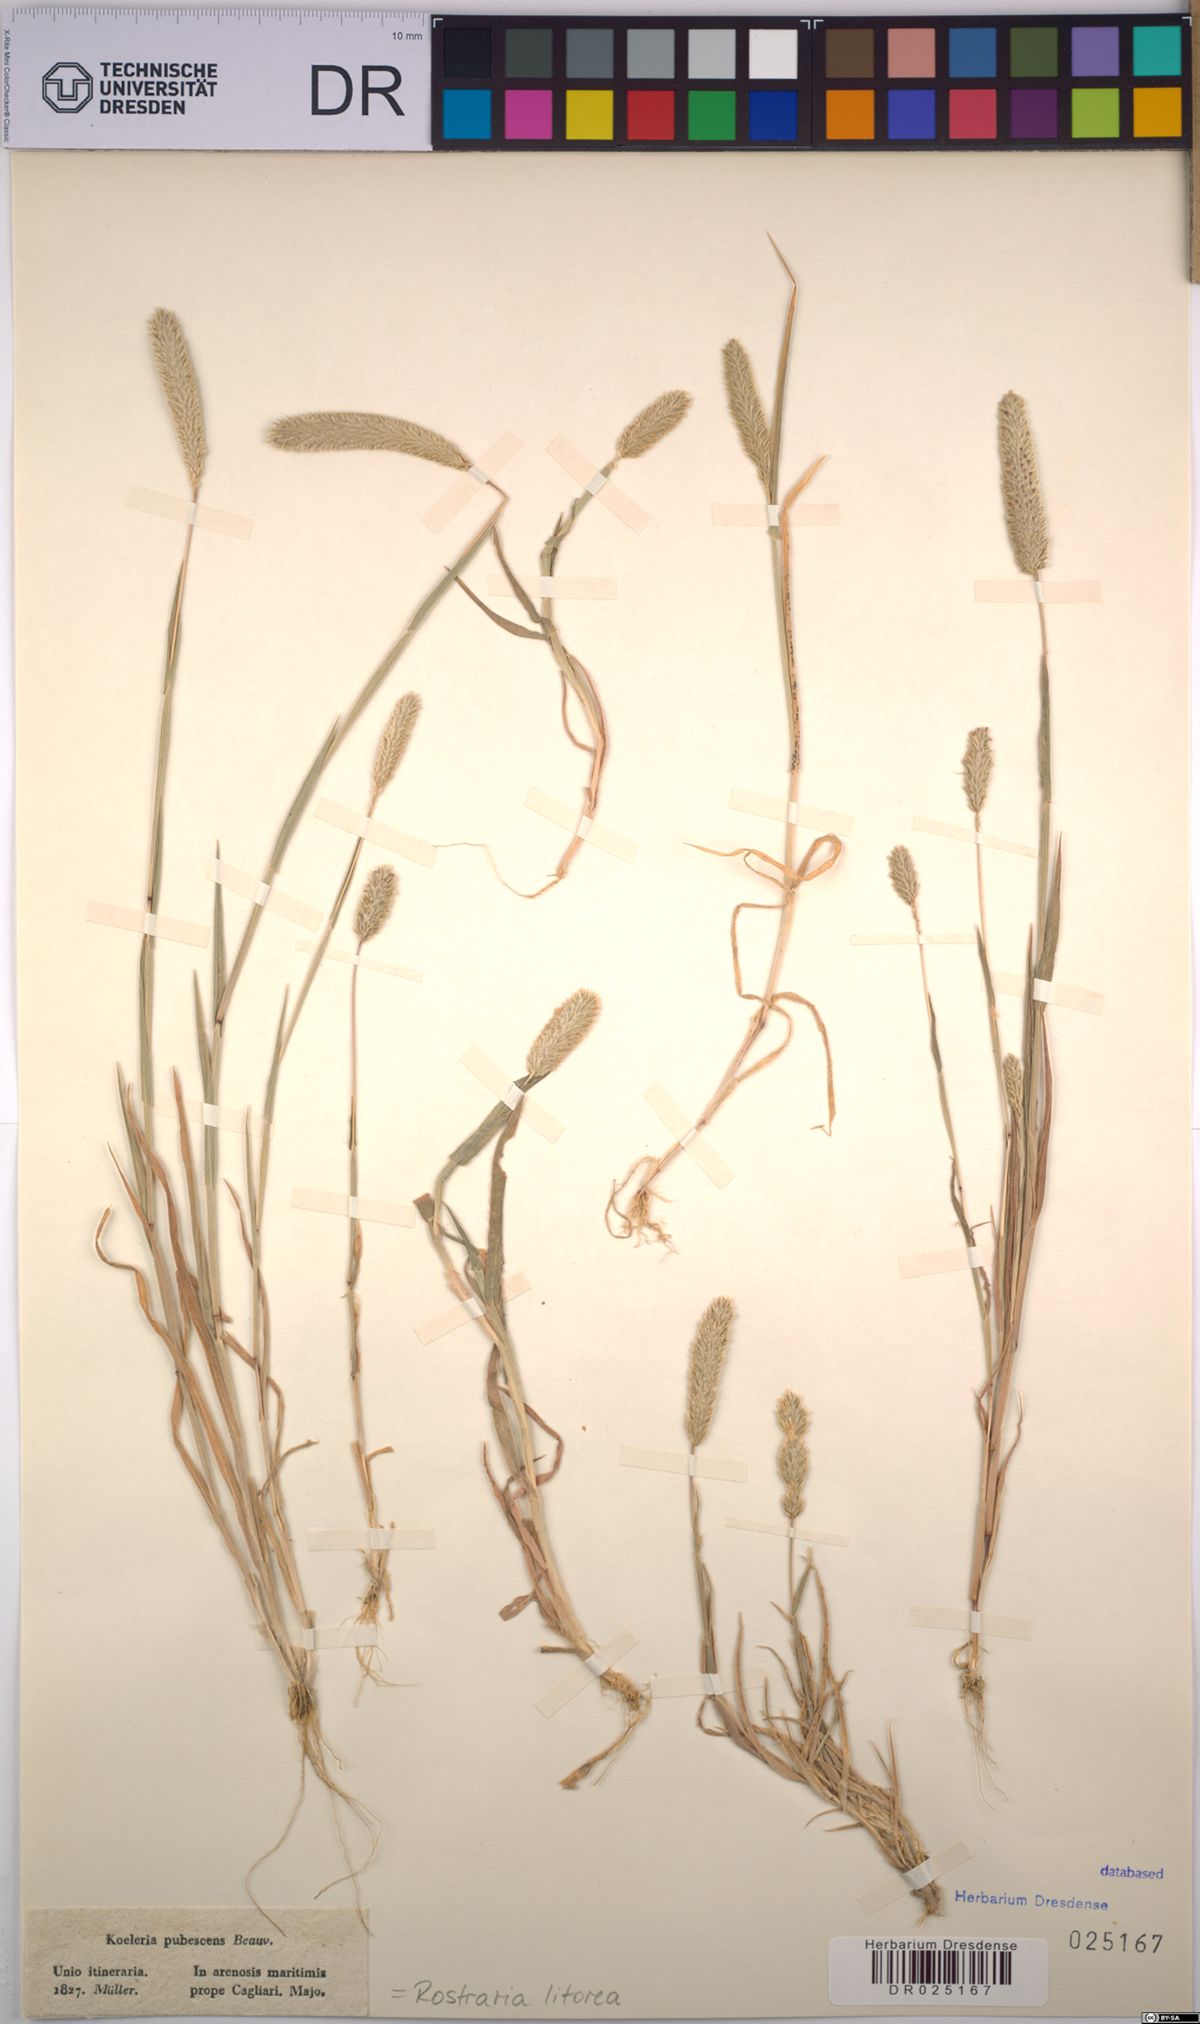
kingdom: Plantae
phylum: Tracheophyta
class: Liliopsida
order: Poales
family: Poaceae
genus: Rostraria
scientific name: Rostraria litorea
